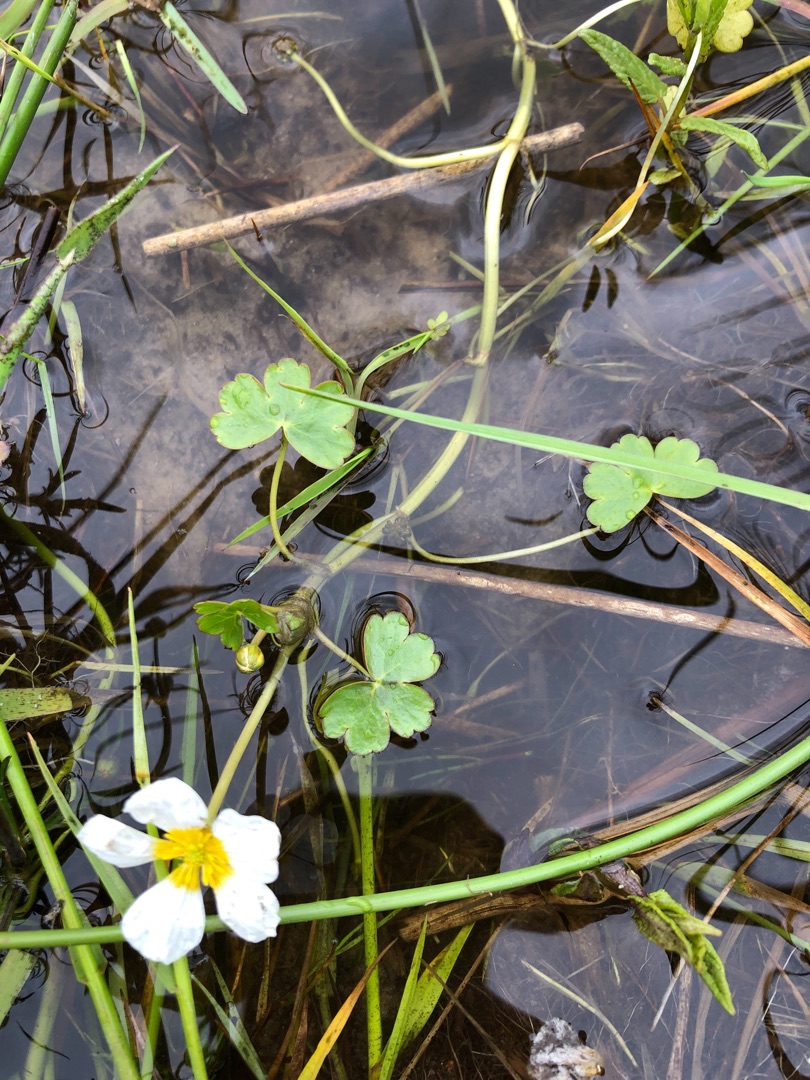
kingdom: Plantae
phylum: Tracheophyta
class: Magnoliopsida
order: Ranunculales
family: Ranunculaceae
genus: Ranunculus
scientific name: Ranunculus peltatus
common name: Storblomstret vandranunkel
